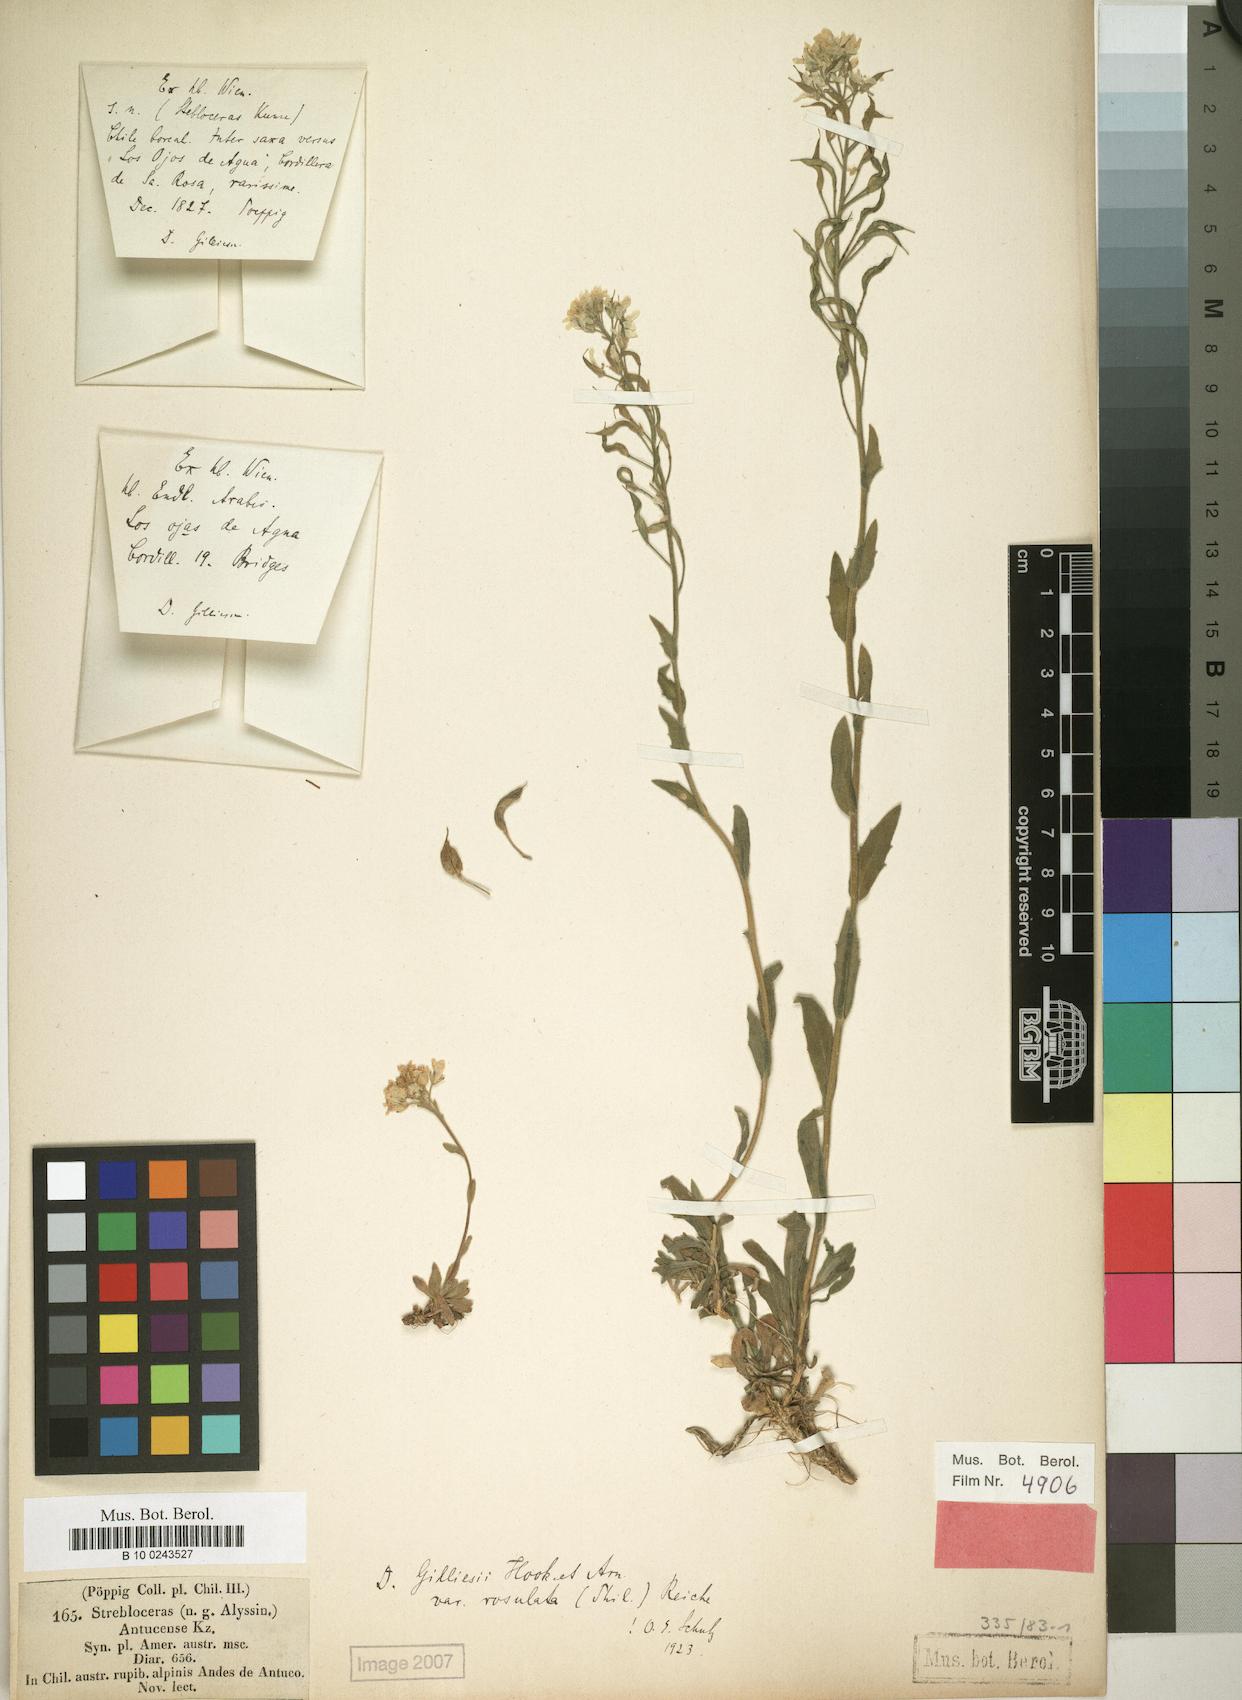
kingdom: Plantae
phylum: Tracheophyta
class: Magnoliopsida
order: Brassicales
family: Brassicaceae
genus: Draba
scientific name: Draba gilliesii
